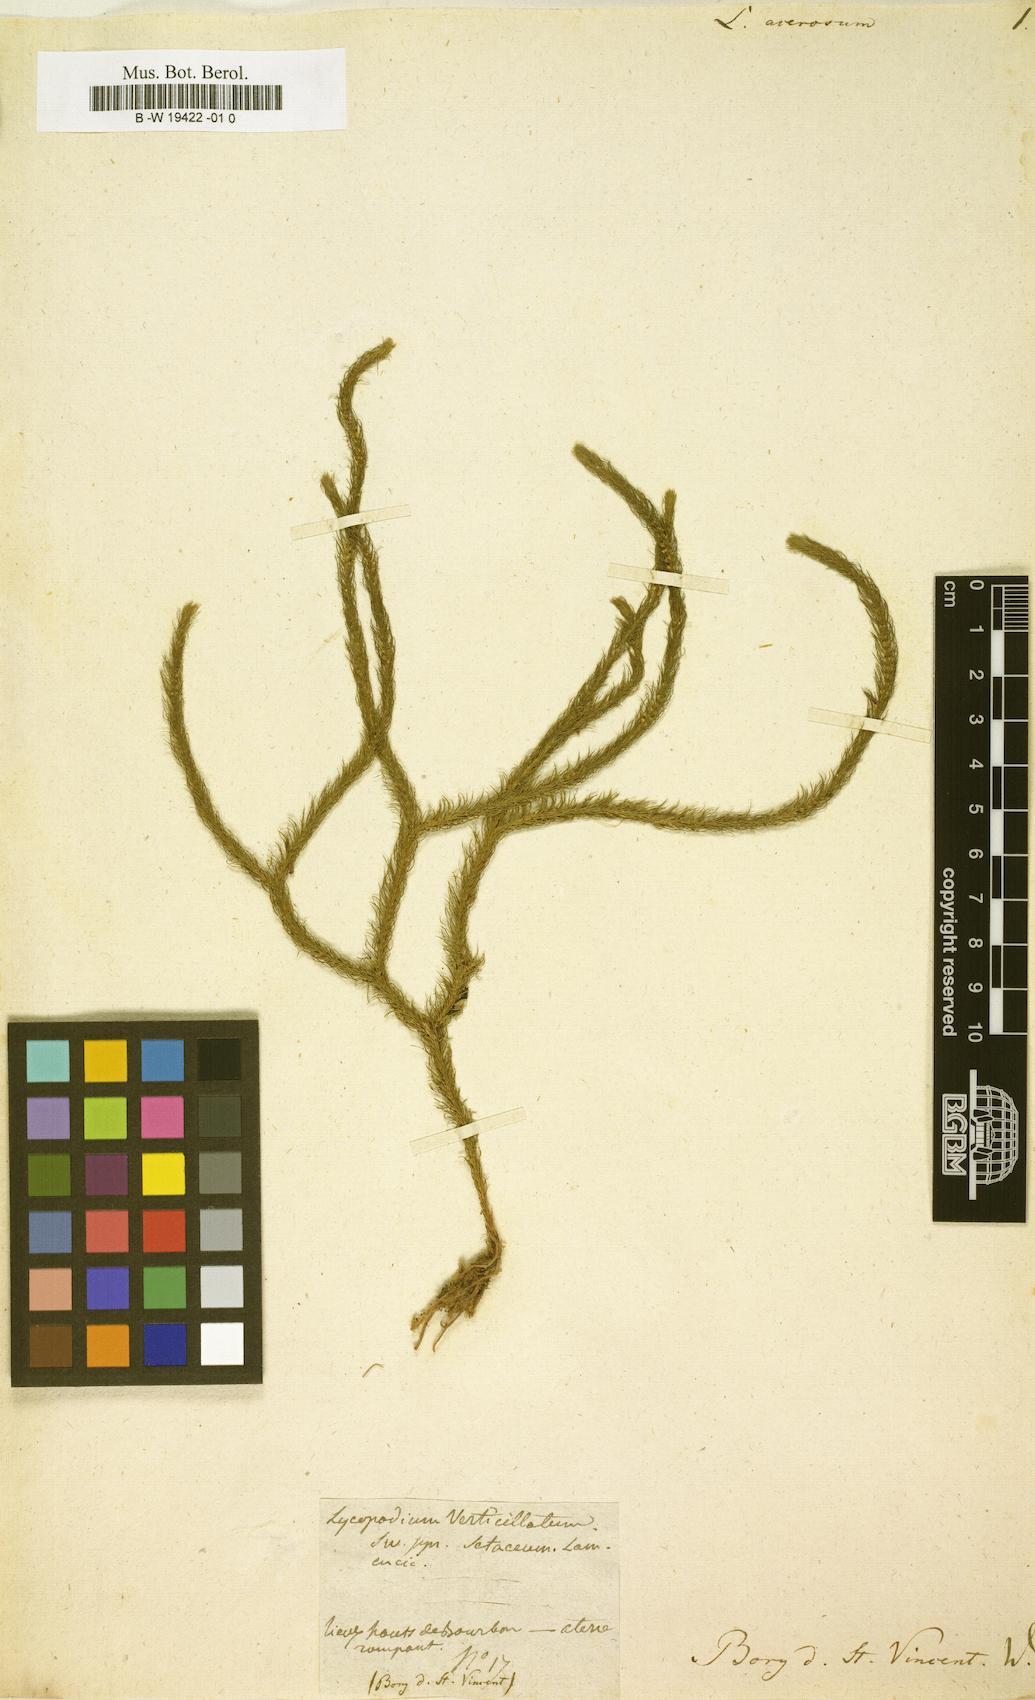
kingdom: Plantae
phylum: Tracheophyta
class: Lycopodiopsida
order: Lycopodiales
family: Lycopodiaceae
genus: Phlegmariurus
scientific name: Phlegmariurus acerosus
